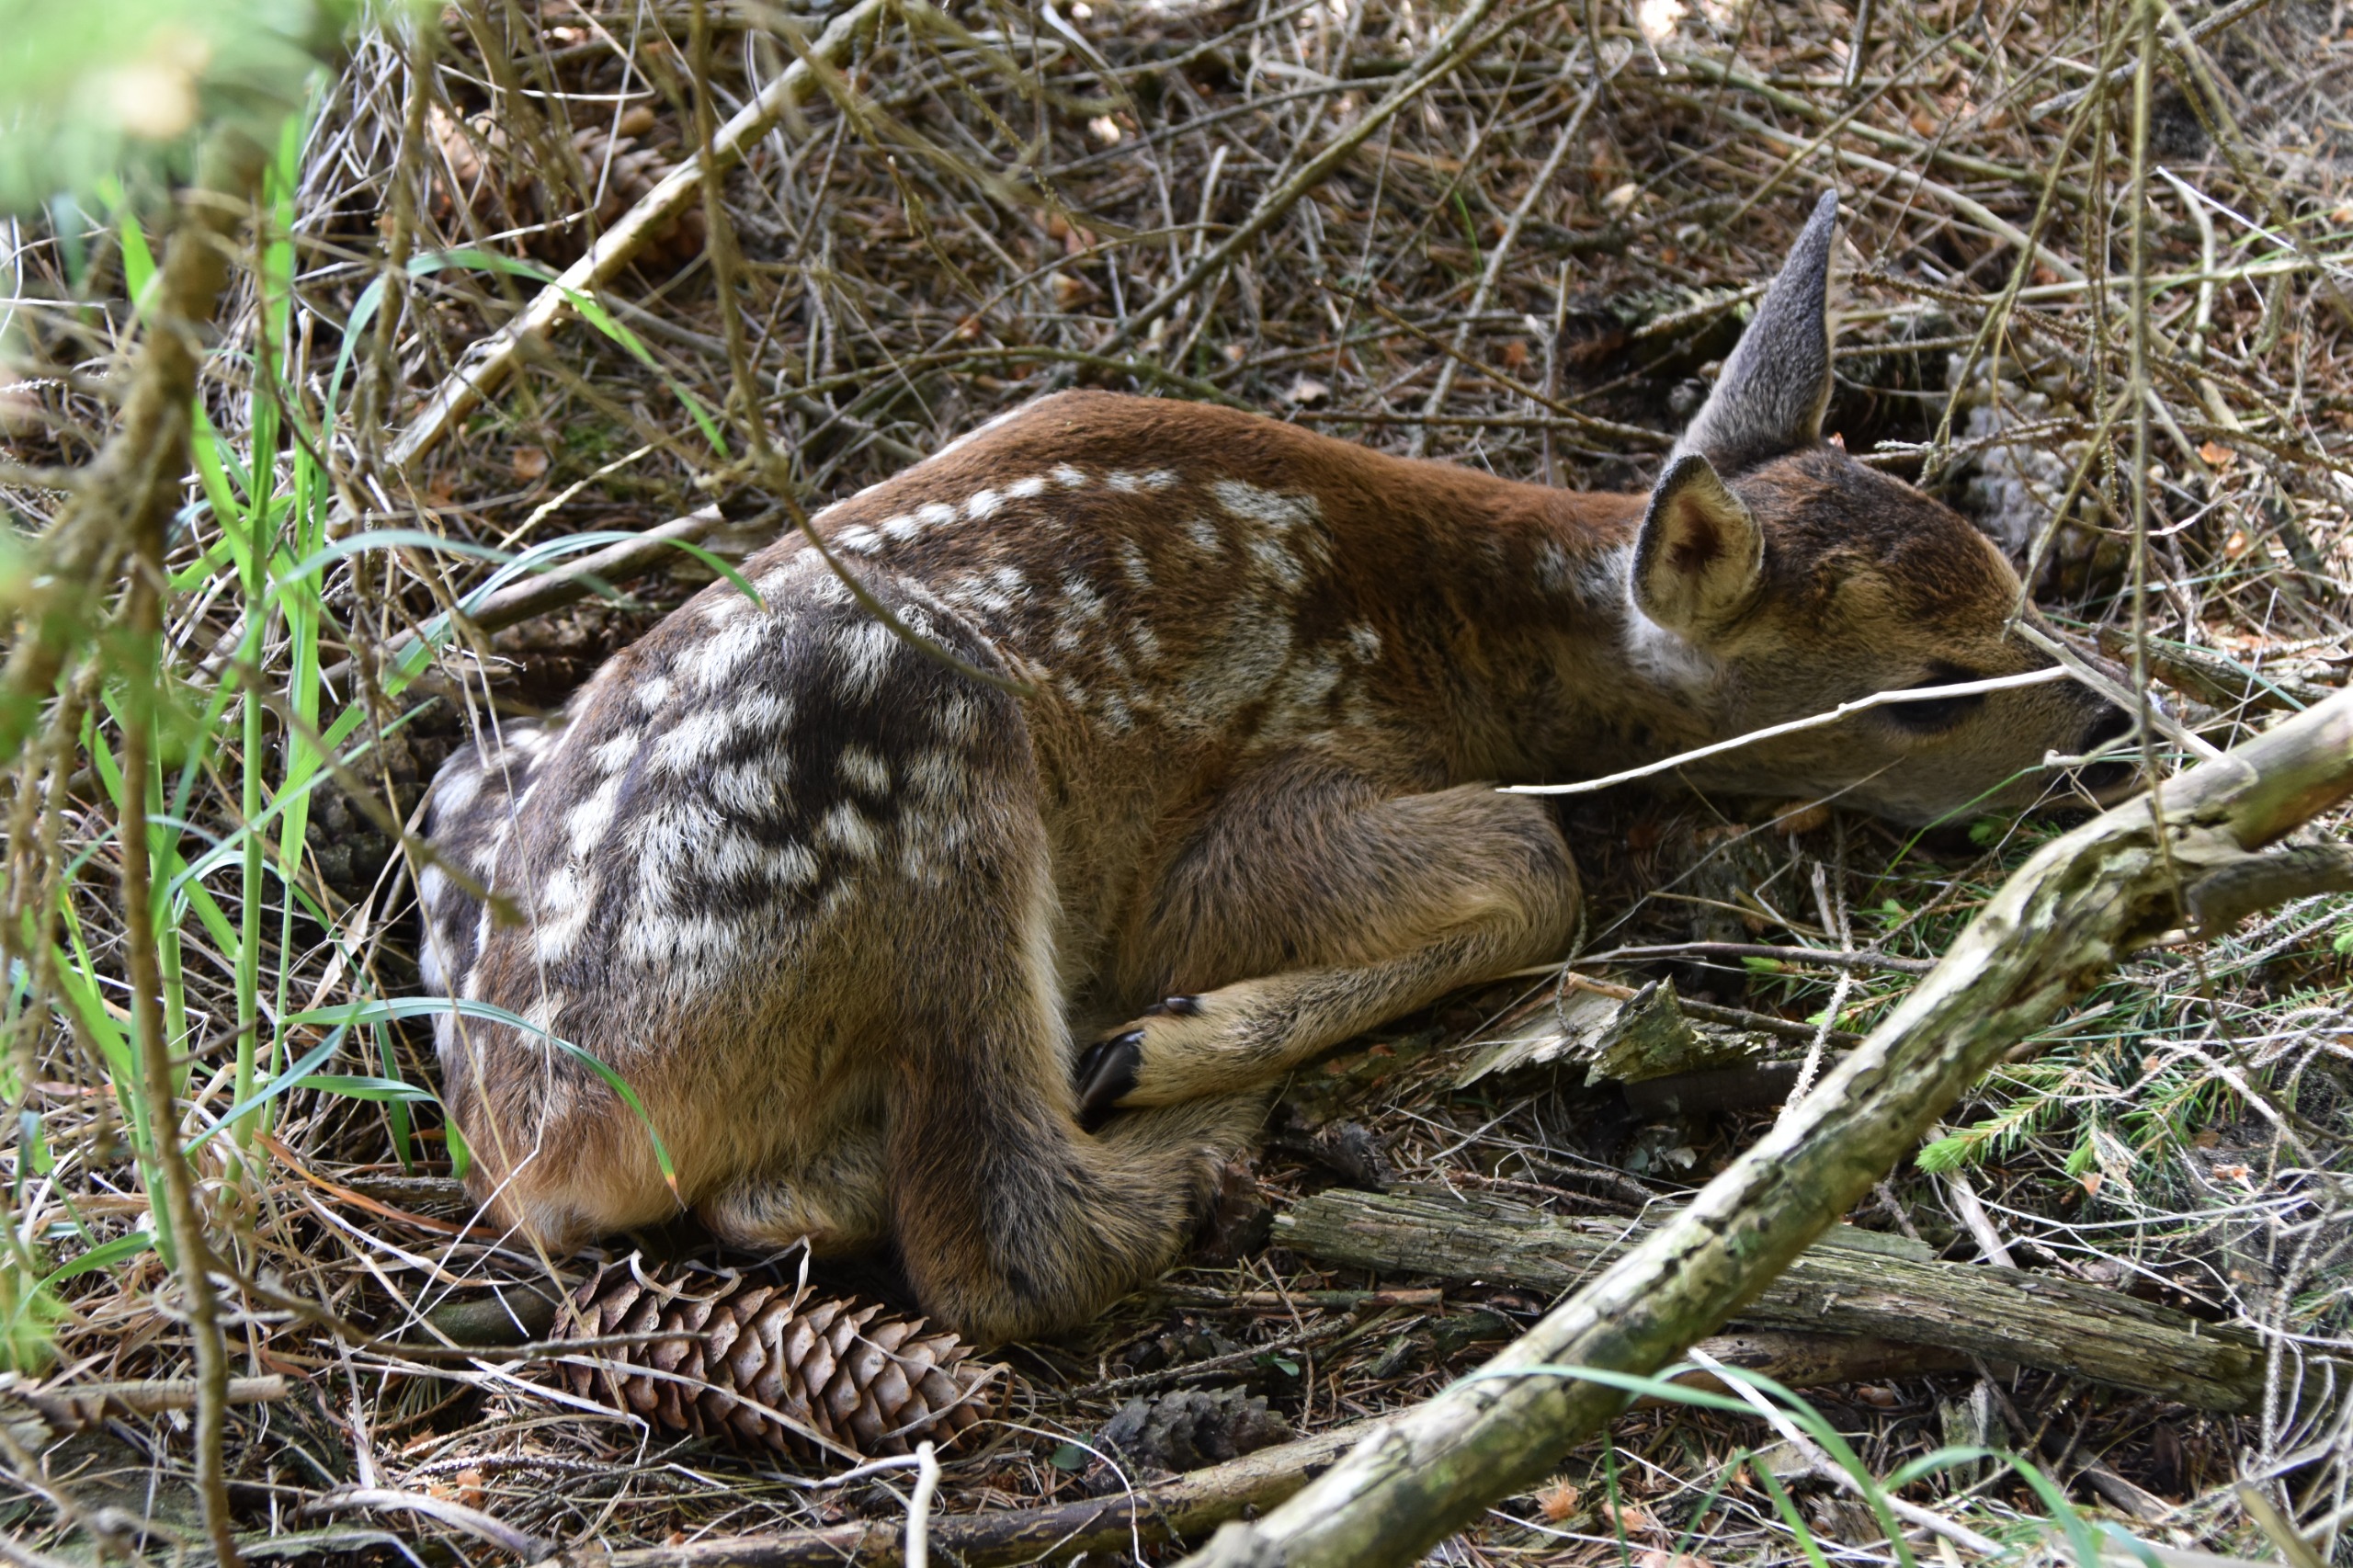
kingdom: Animalia
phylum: Chordata
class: Mammalia
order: Artiodactyla
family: Cervidae
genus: Capreolus
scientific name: Capreolus capreolus
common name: Rådyr
